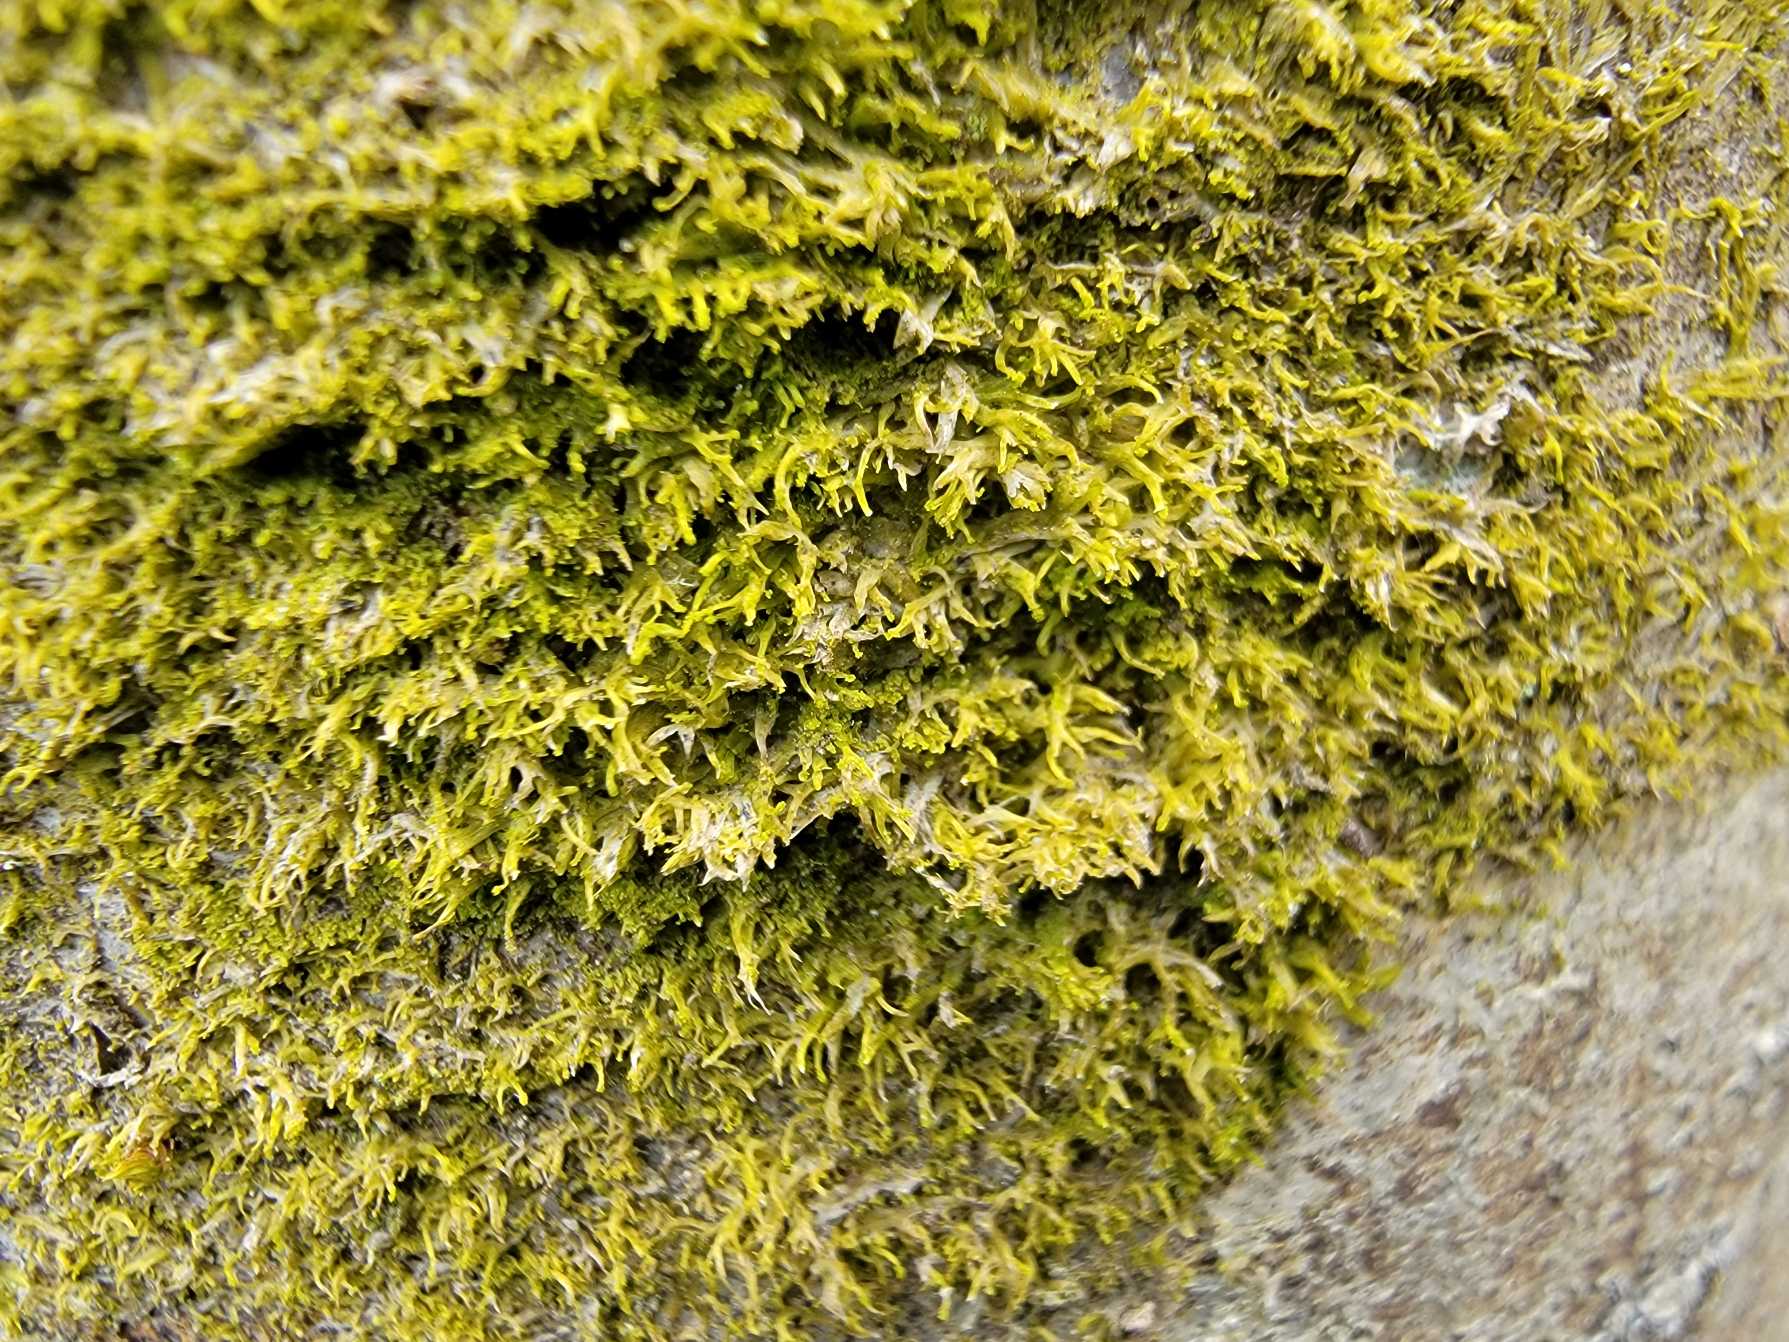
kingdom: Plantae
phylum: Marchantiophyta
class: Jungermanniopsida
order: Metzgeriales
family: Aneuraceae
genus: Riccardia
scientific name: Riccardia palmata
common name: Blågrøn gaffelløv
